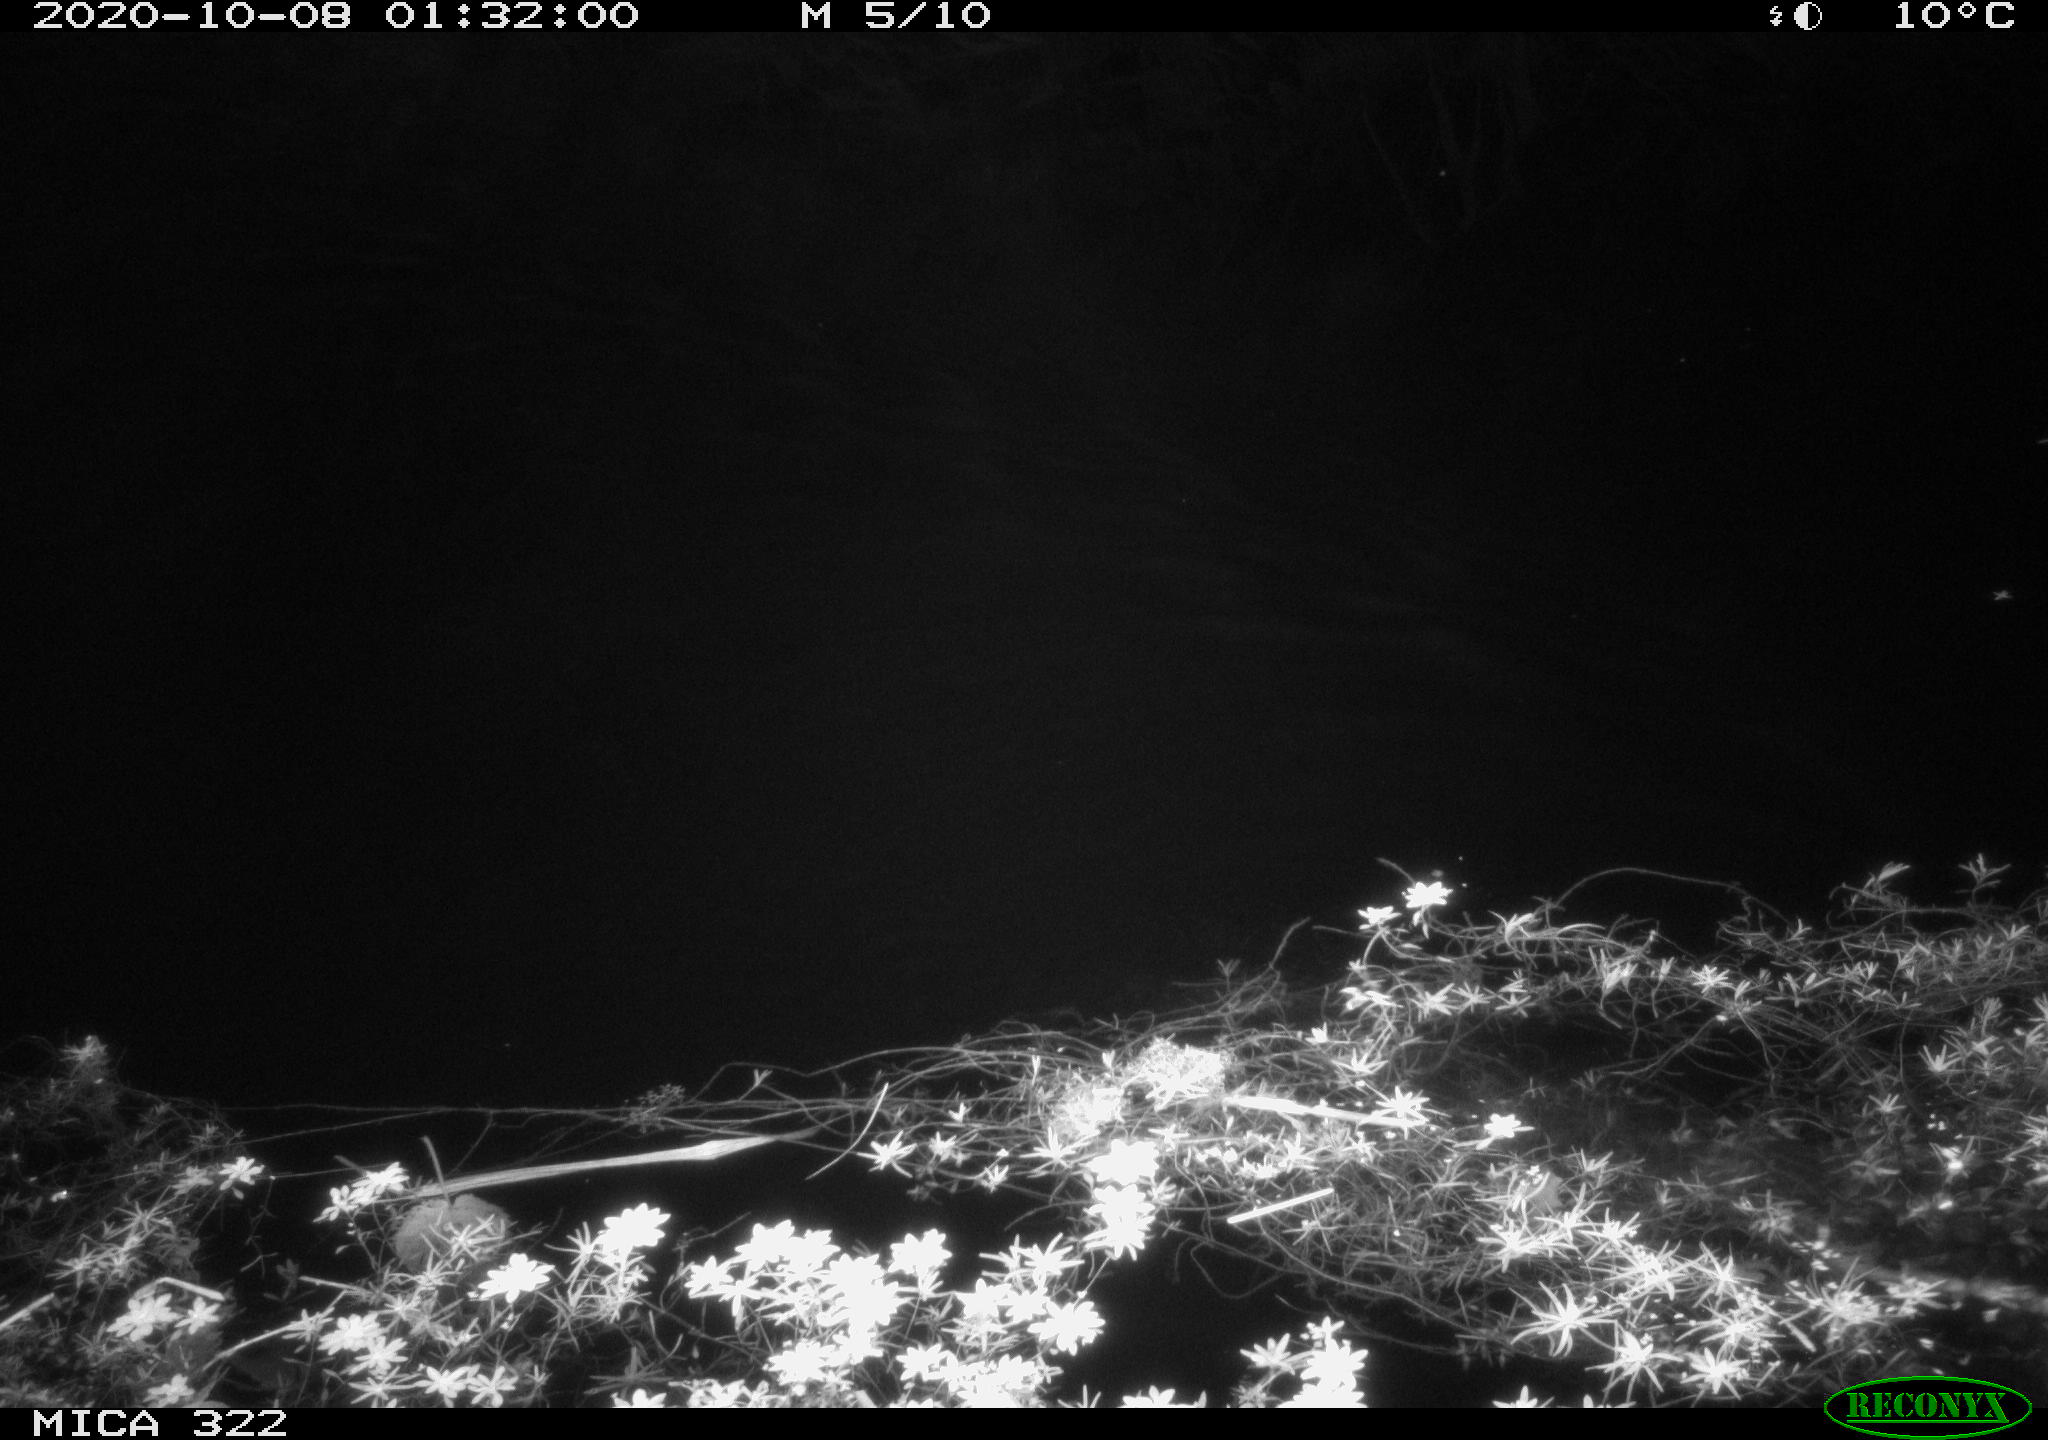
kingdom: Animalia
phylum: Chordata
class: Mammalia
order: Rodentia
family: Muridae
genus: Rattus
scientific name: Rattus norvegicus
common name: Brown rat
